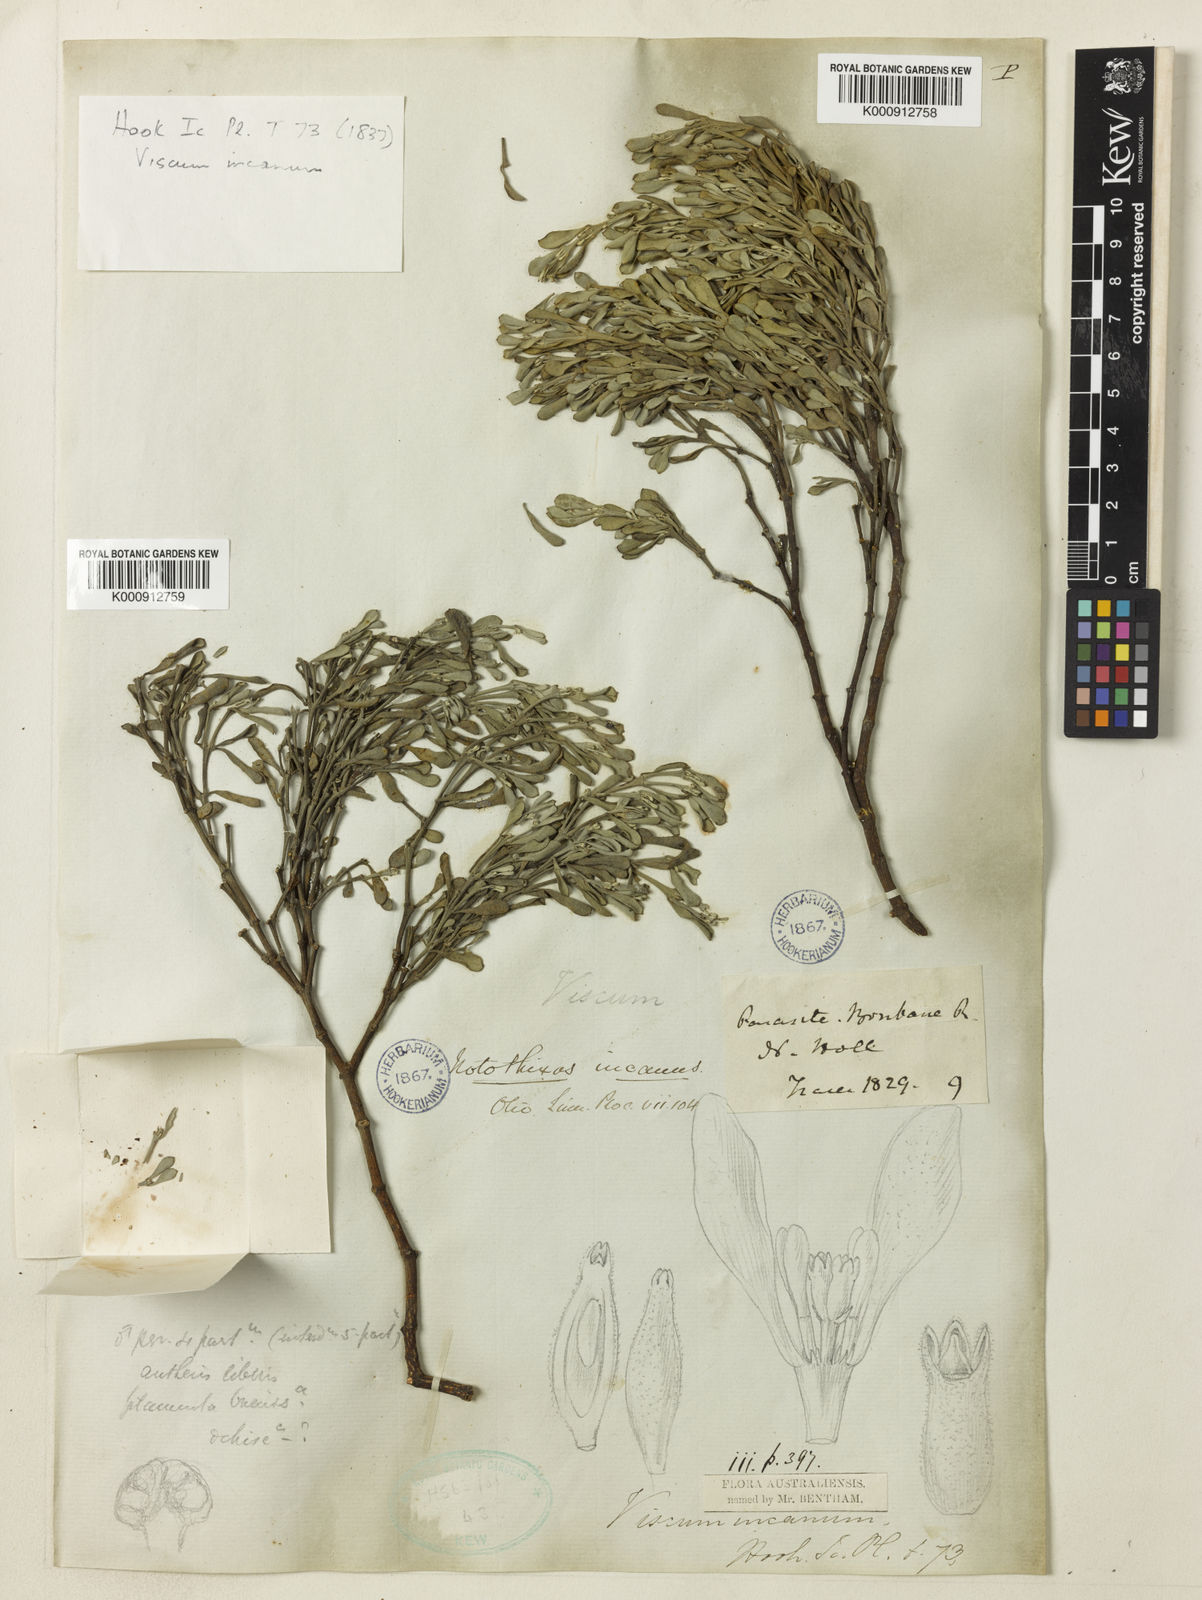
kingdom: Plantae
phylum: Tracheophyta
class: Magnoliopsida
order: Santalales
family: Viscaceae
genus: Notothixos
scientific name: Notothixos incanus
